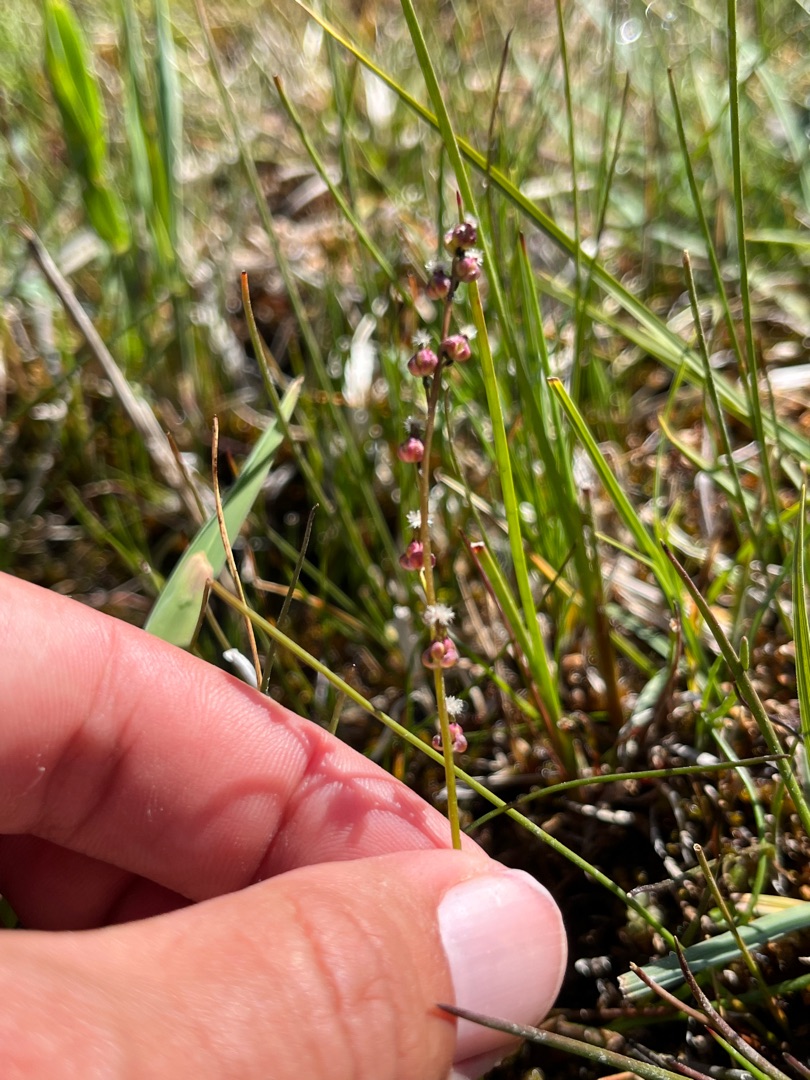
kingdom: Plantae
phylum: Tracheophyta
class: Liliopsida
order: Alismatales
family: Juncaginaceae
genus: Triglochin
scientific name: Triglochin palustris
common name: Kær-trehage
